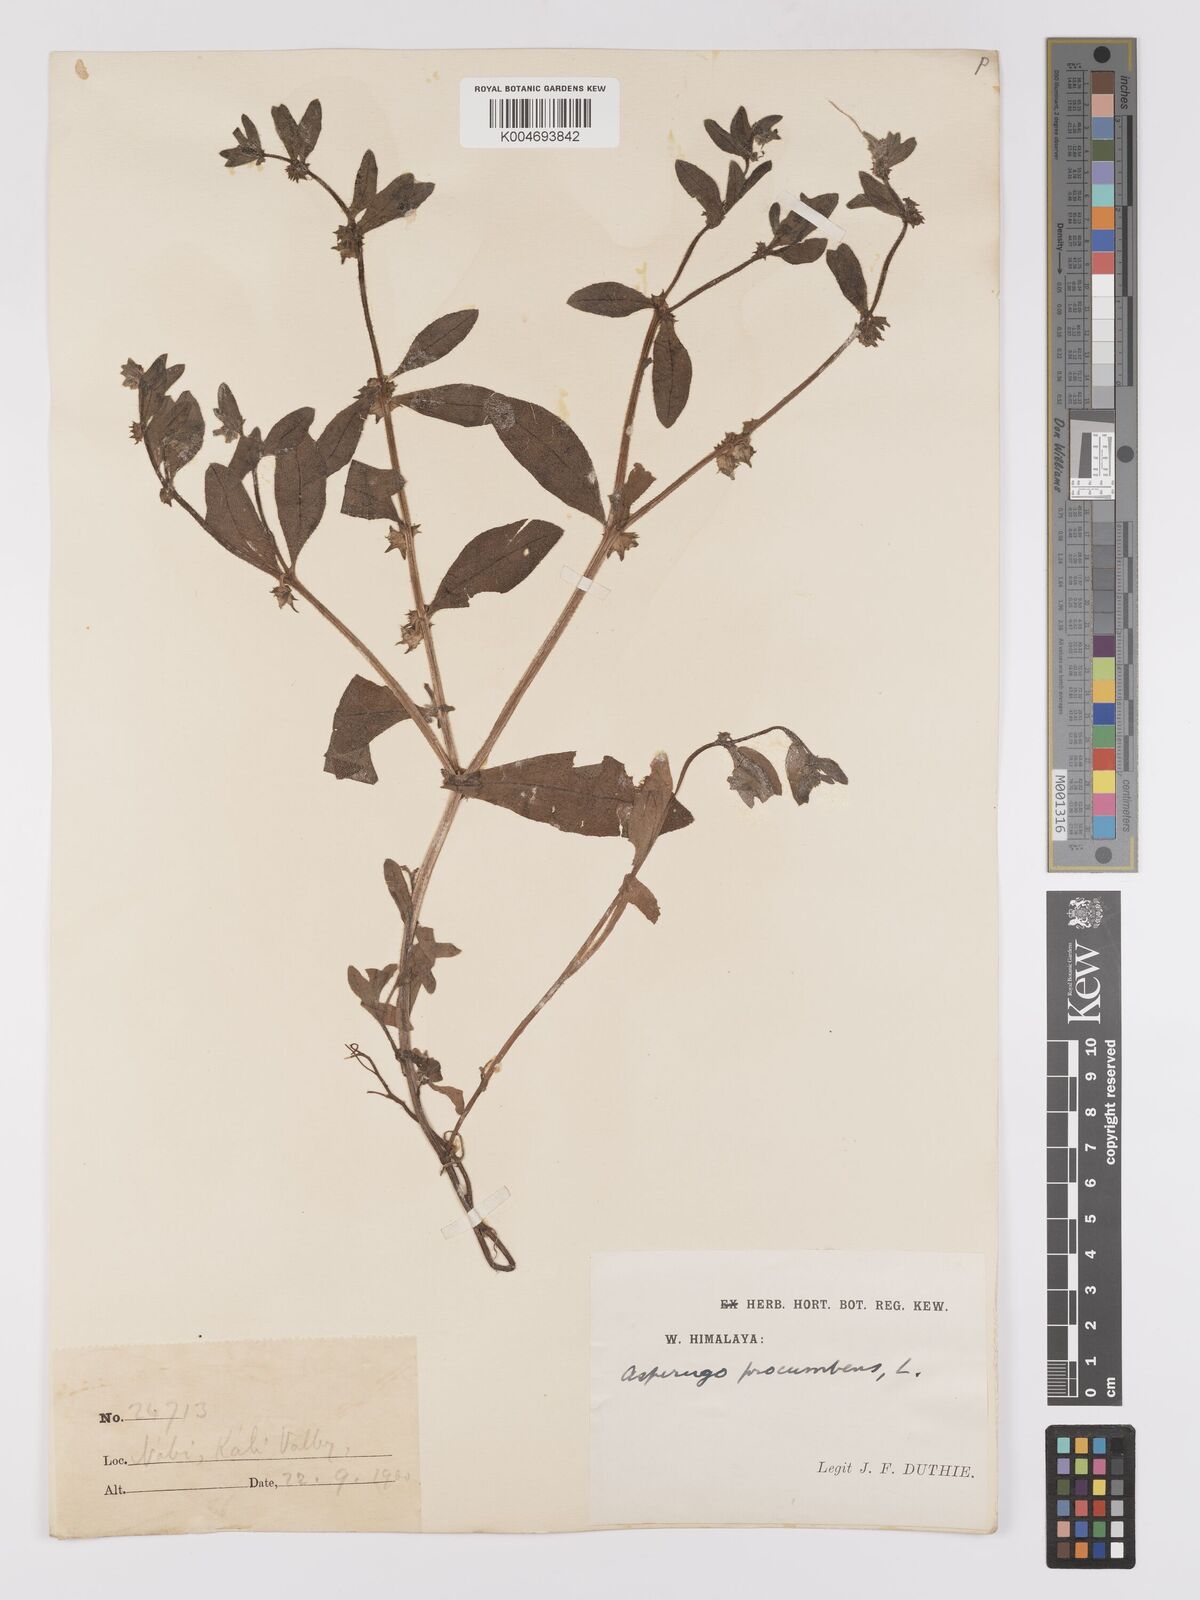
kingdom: Plantae
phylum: Tracheophyta
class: Magnoliopsida
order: Boraginales
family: Boraginaceae
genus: Asperugo
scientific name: Asperugo procumbens
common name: Madwort
